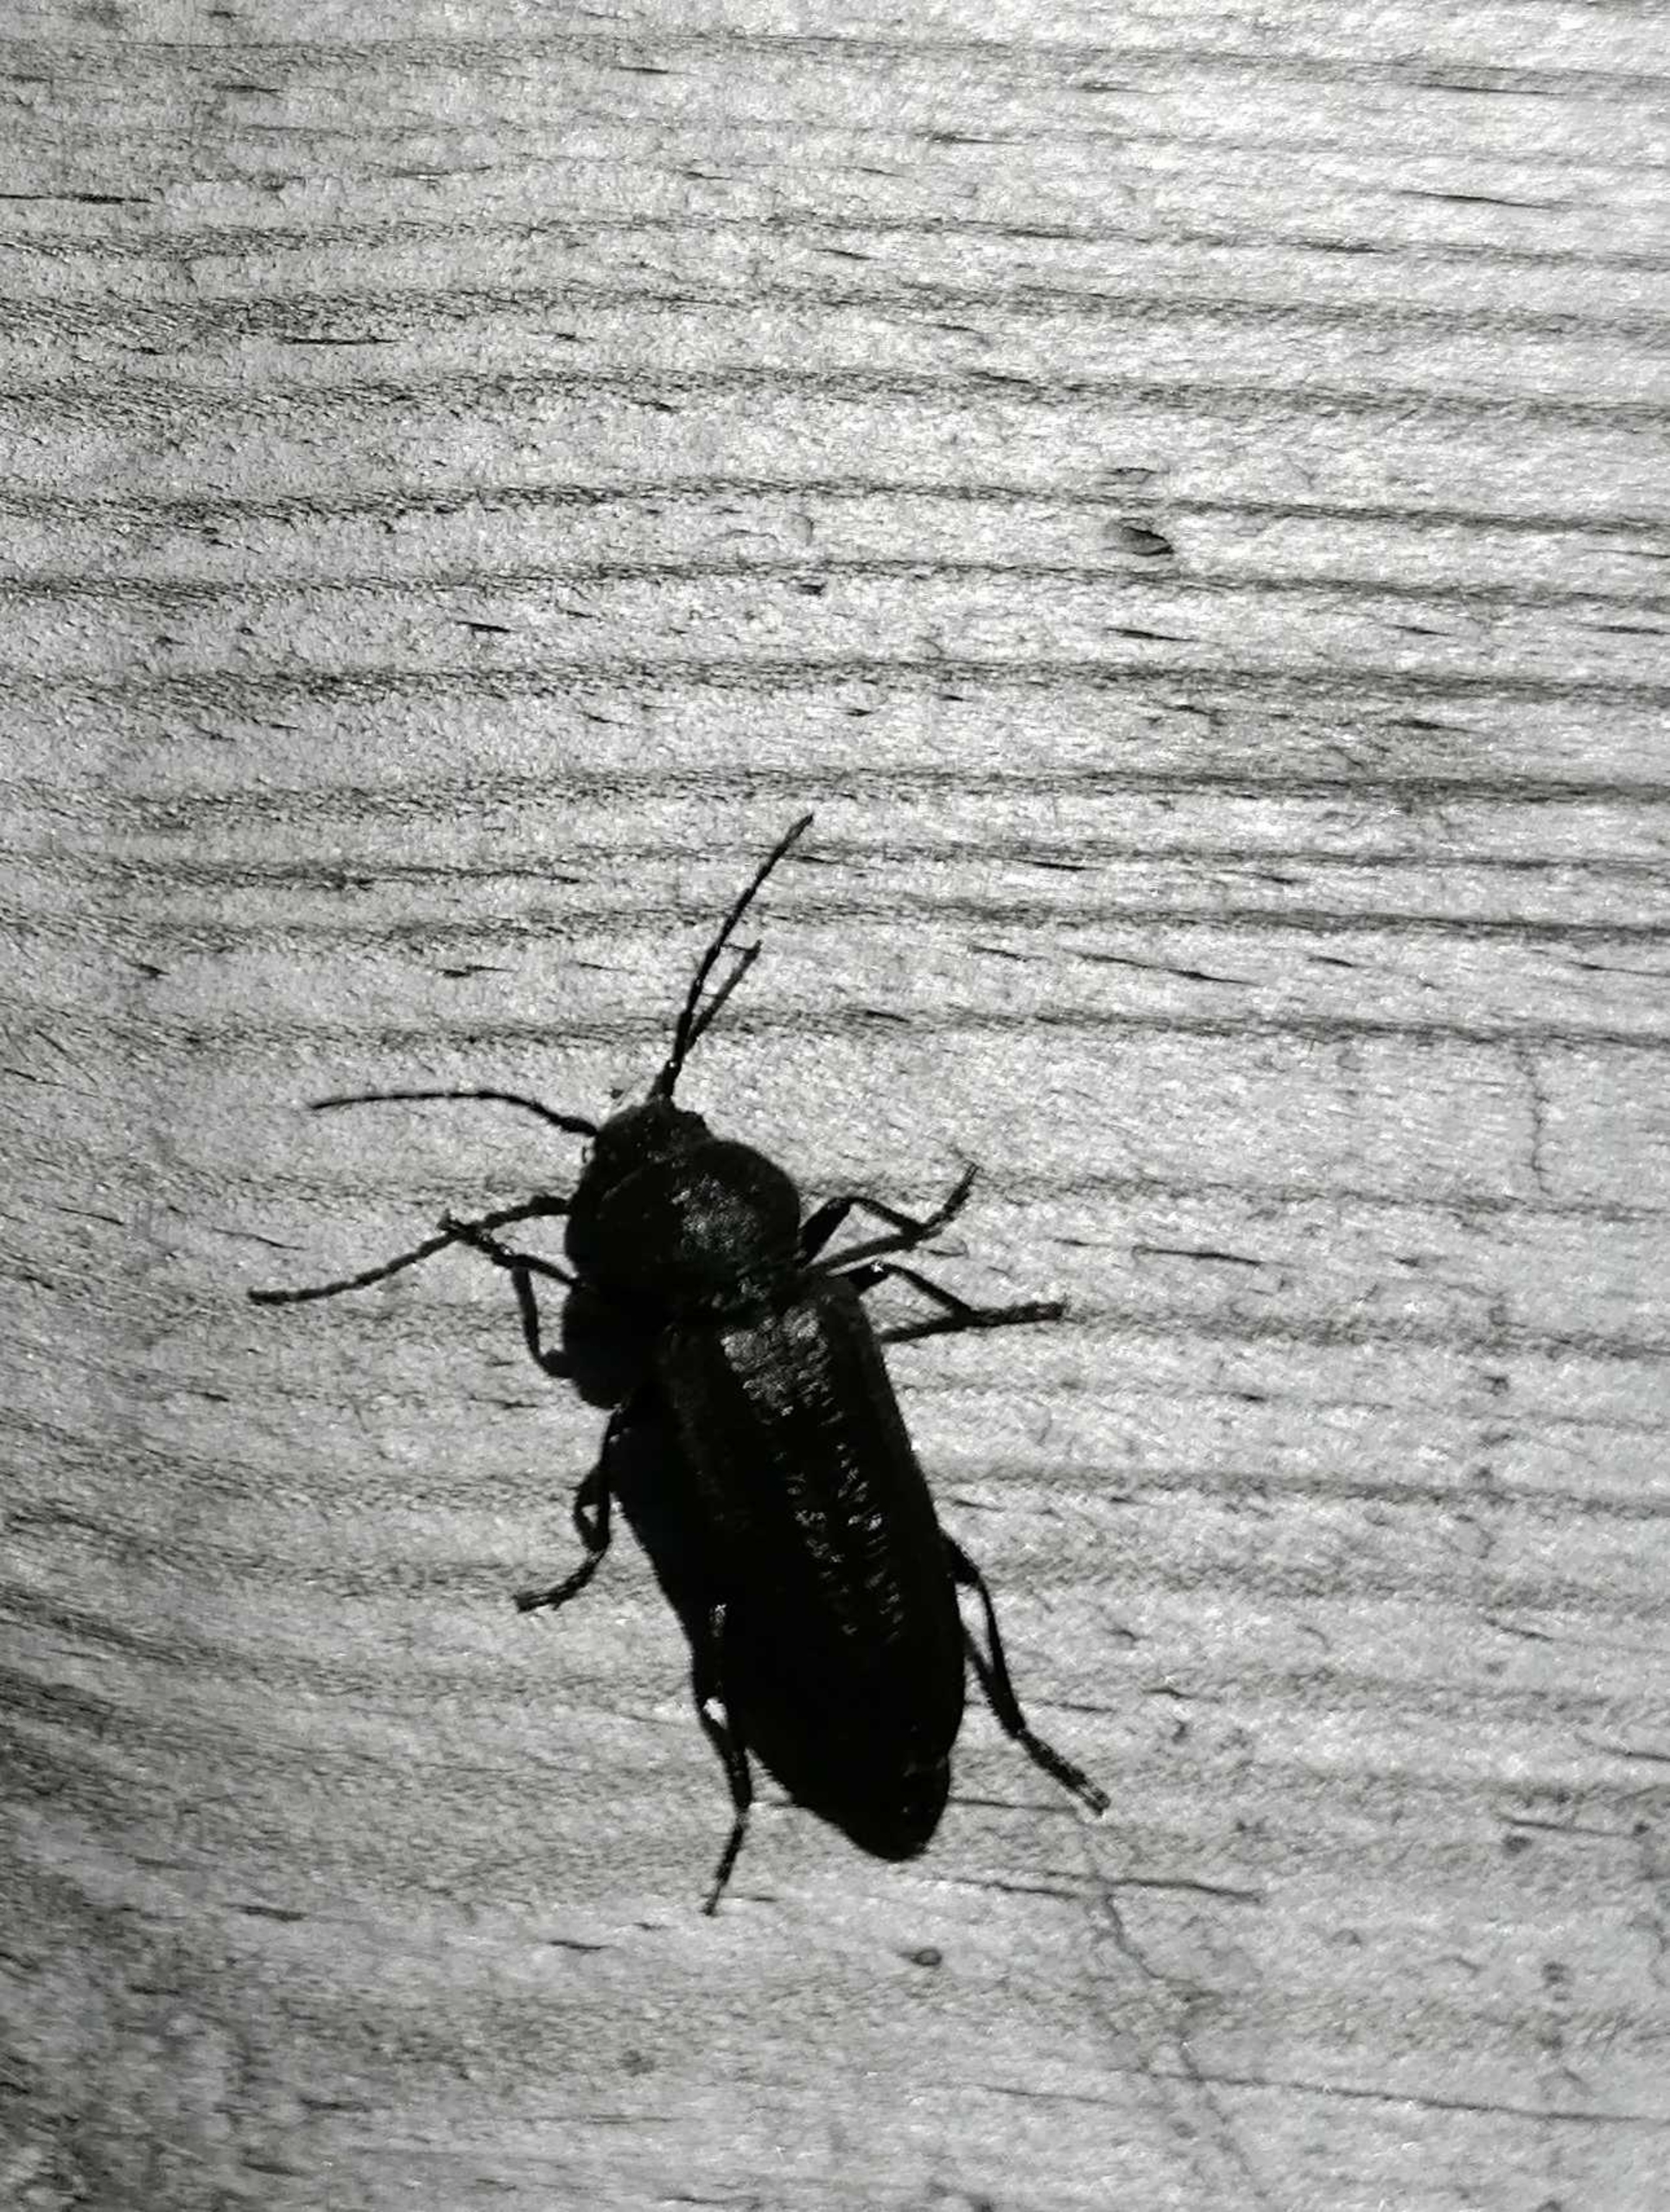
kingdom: Animalia
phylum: Arthropoda
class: Insecta
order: Coleoptera
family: Cerambycidae
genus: Asemum
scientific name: Asemum striatum
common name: Stribet barkbuk
